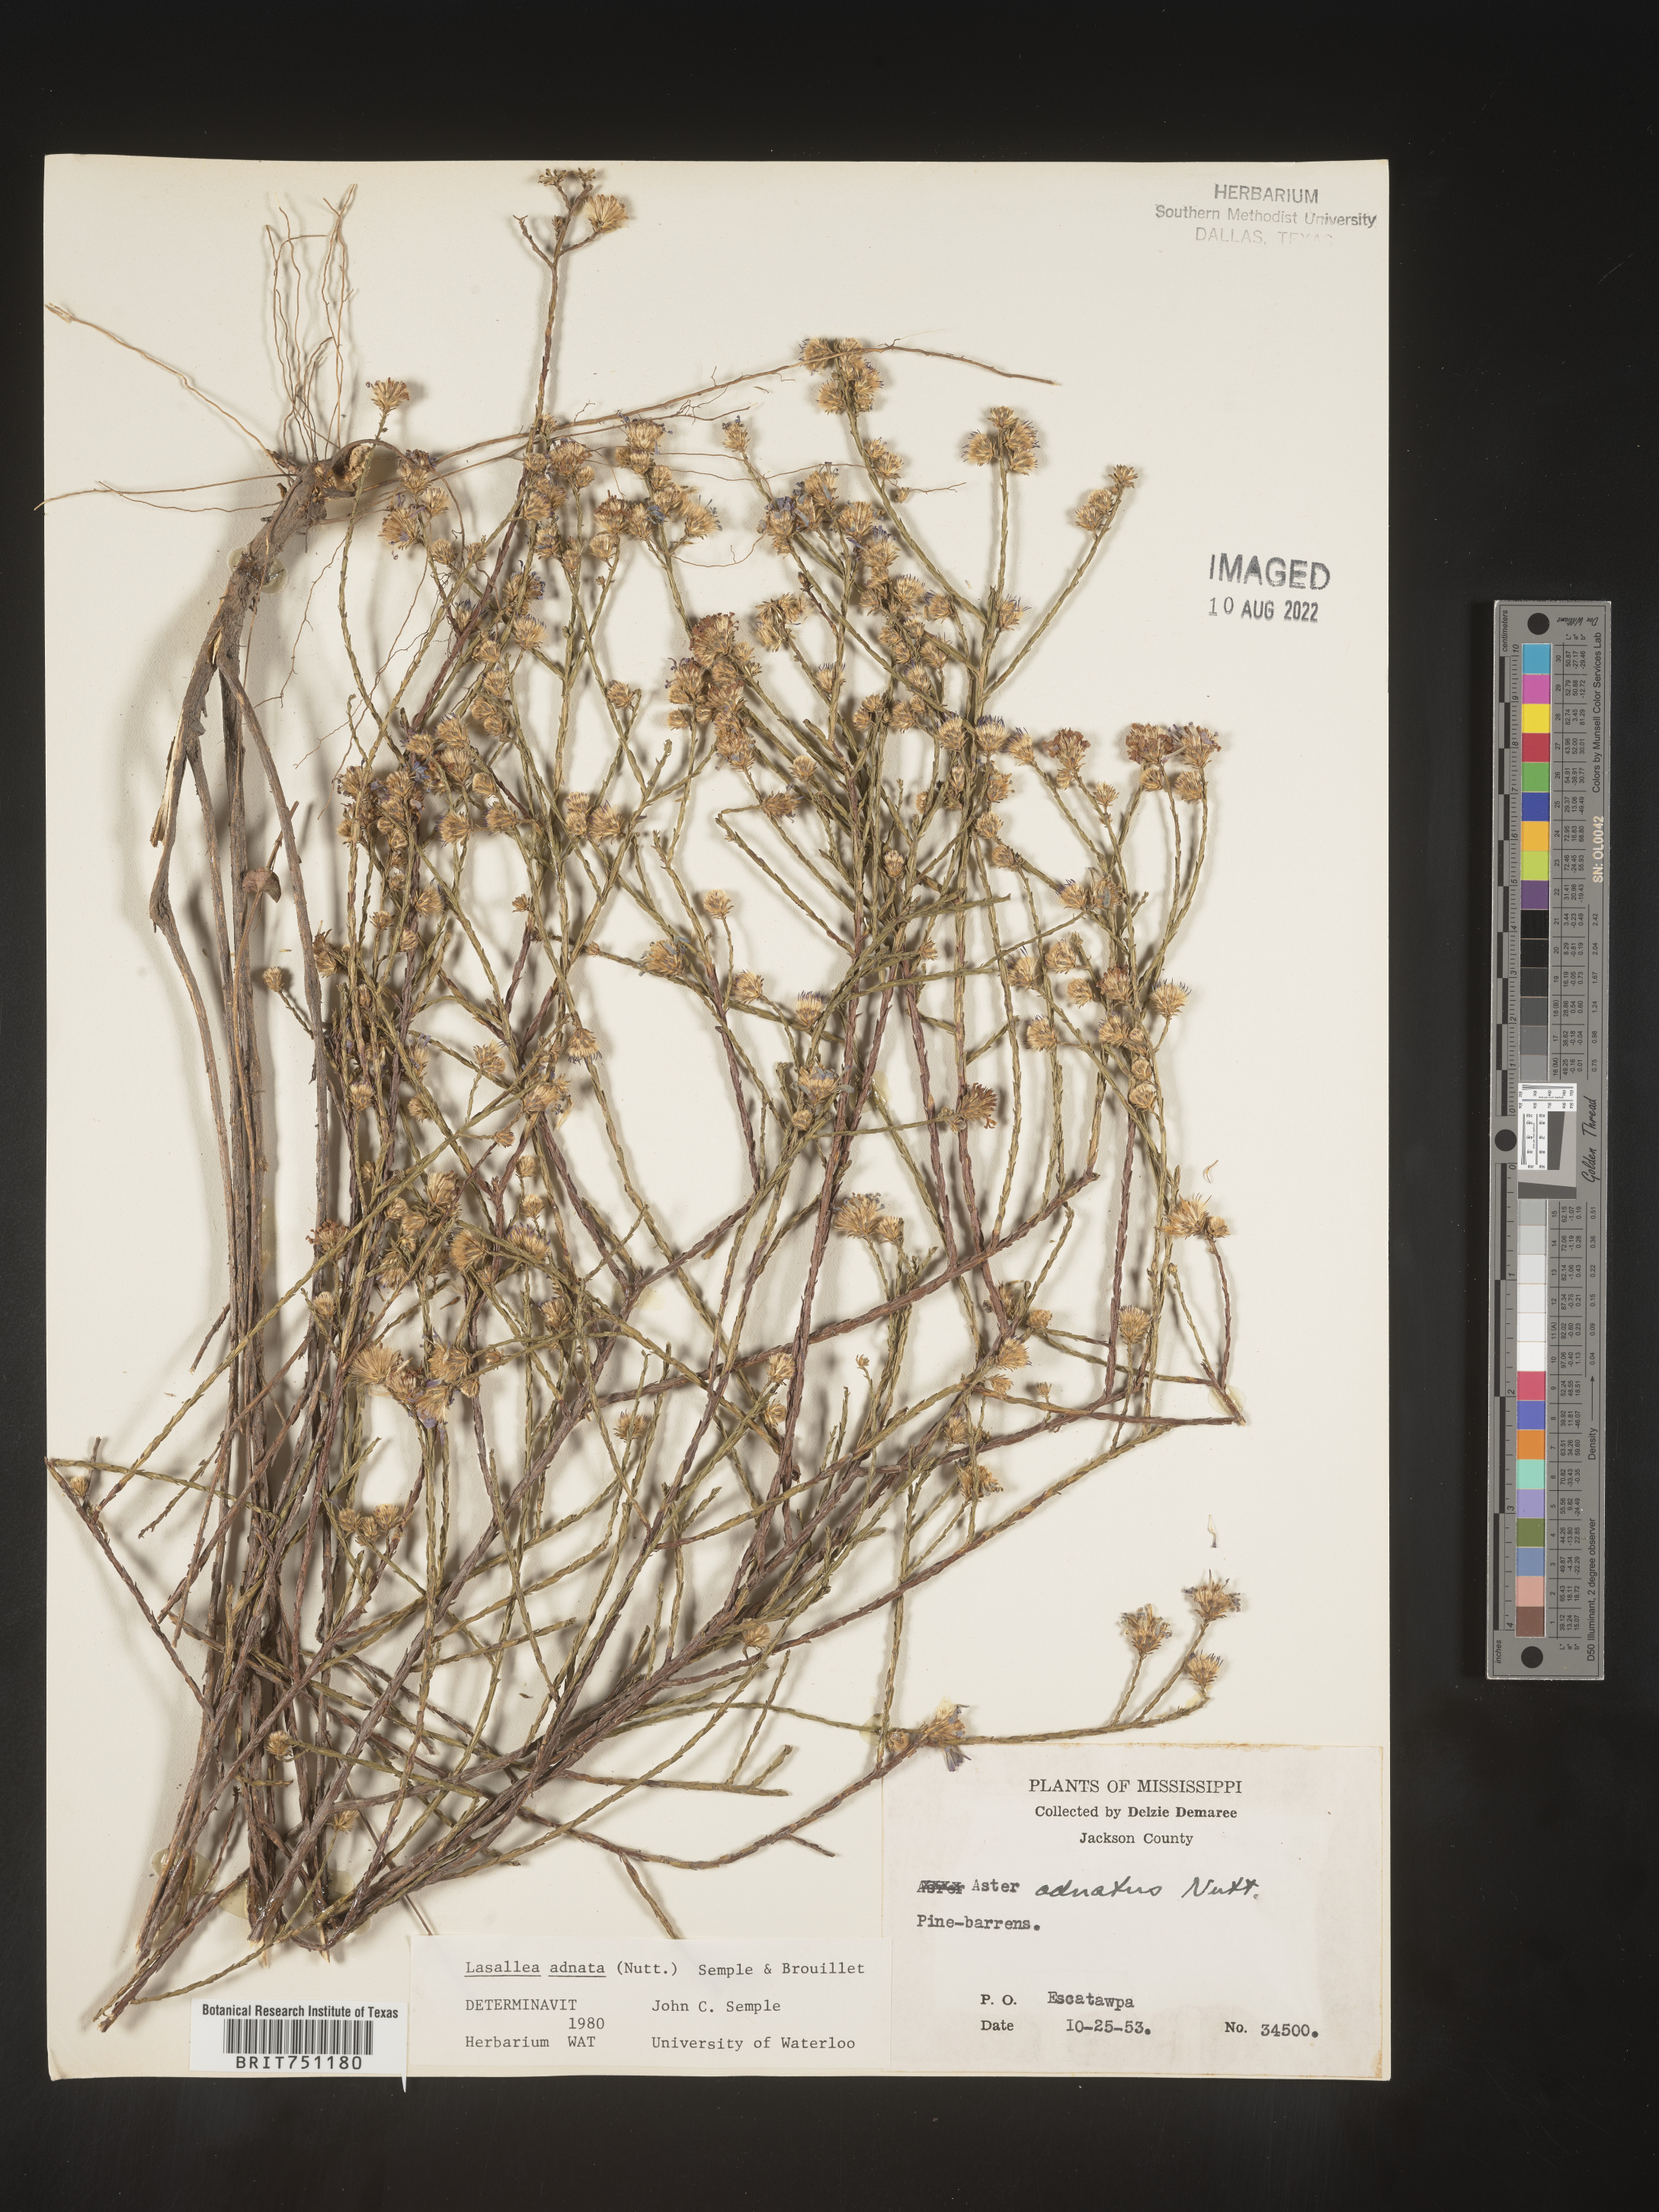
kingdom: Plantae
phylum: Tracheophyta
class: Magnoliopsida
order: Asterales
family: Asteraceae
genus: Symphyotrichum
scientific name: Symphyotrichum adnatum
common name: Scale-leaf aster
